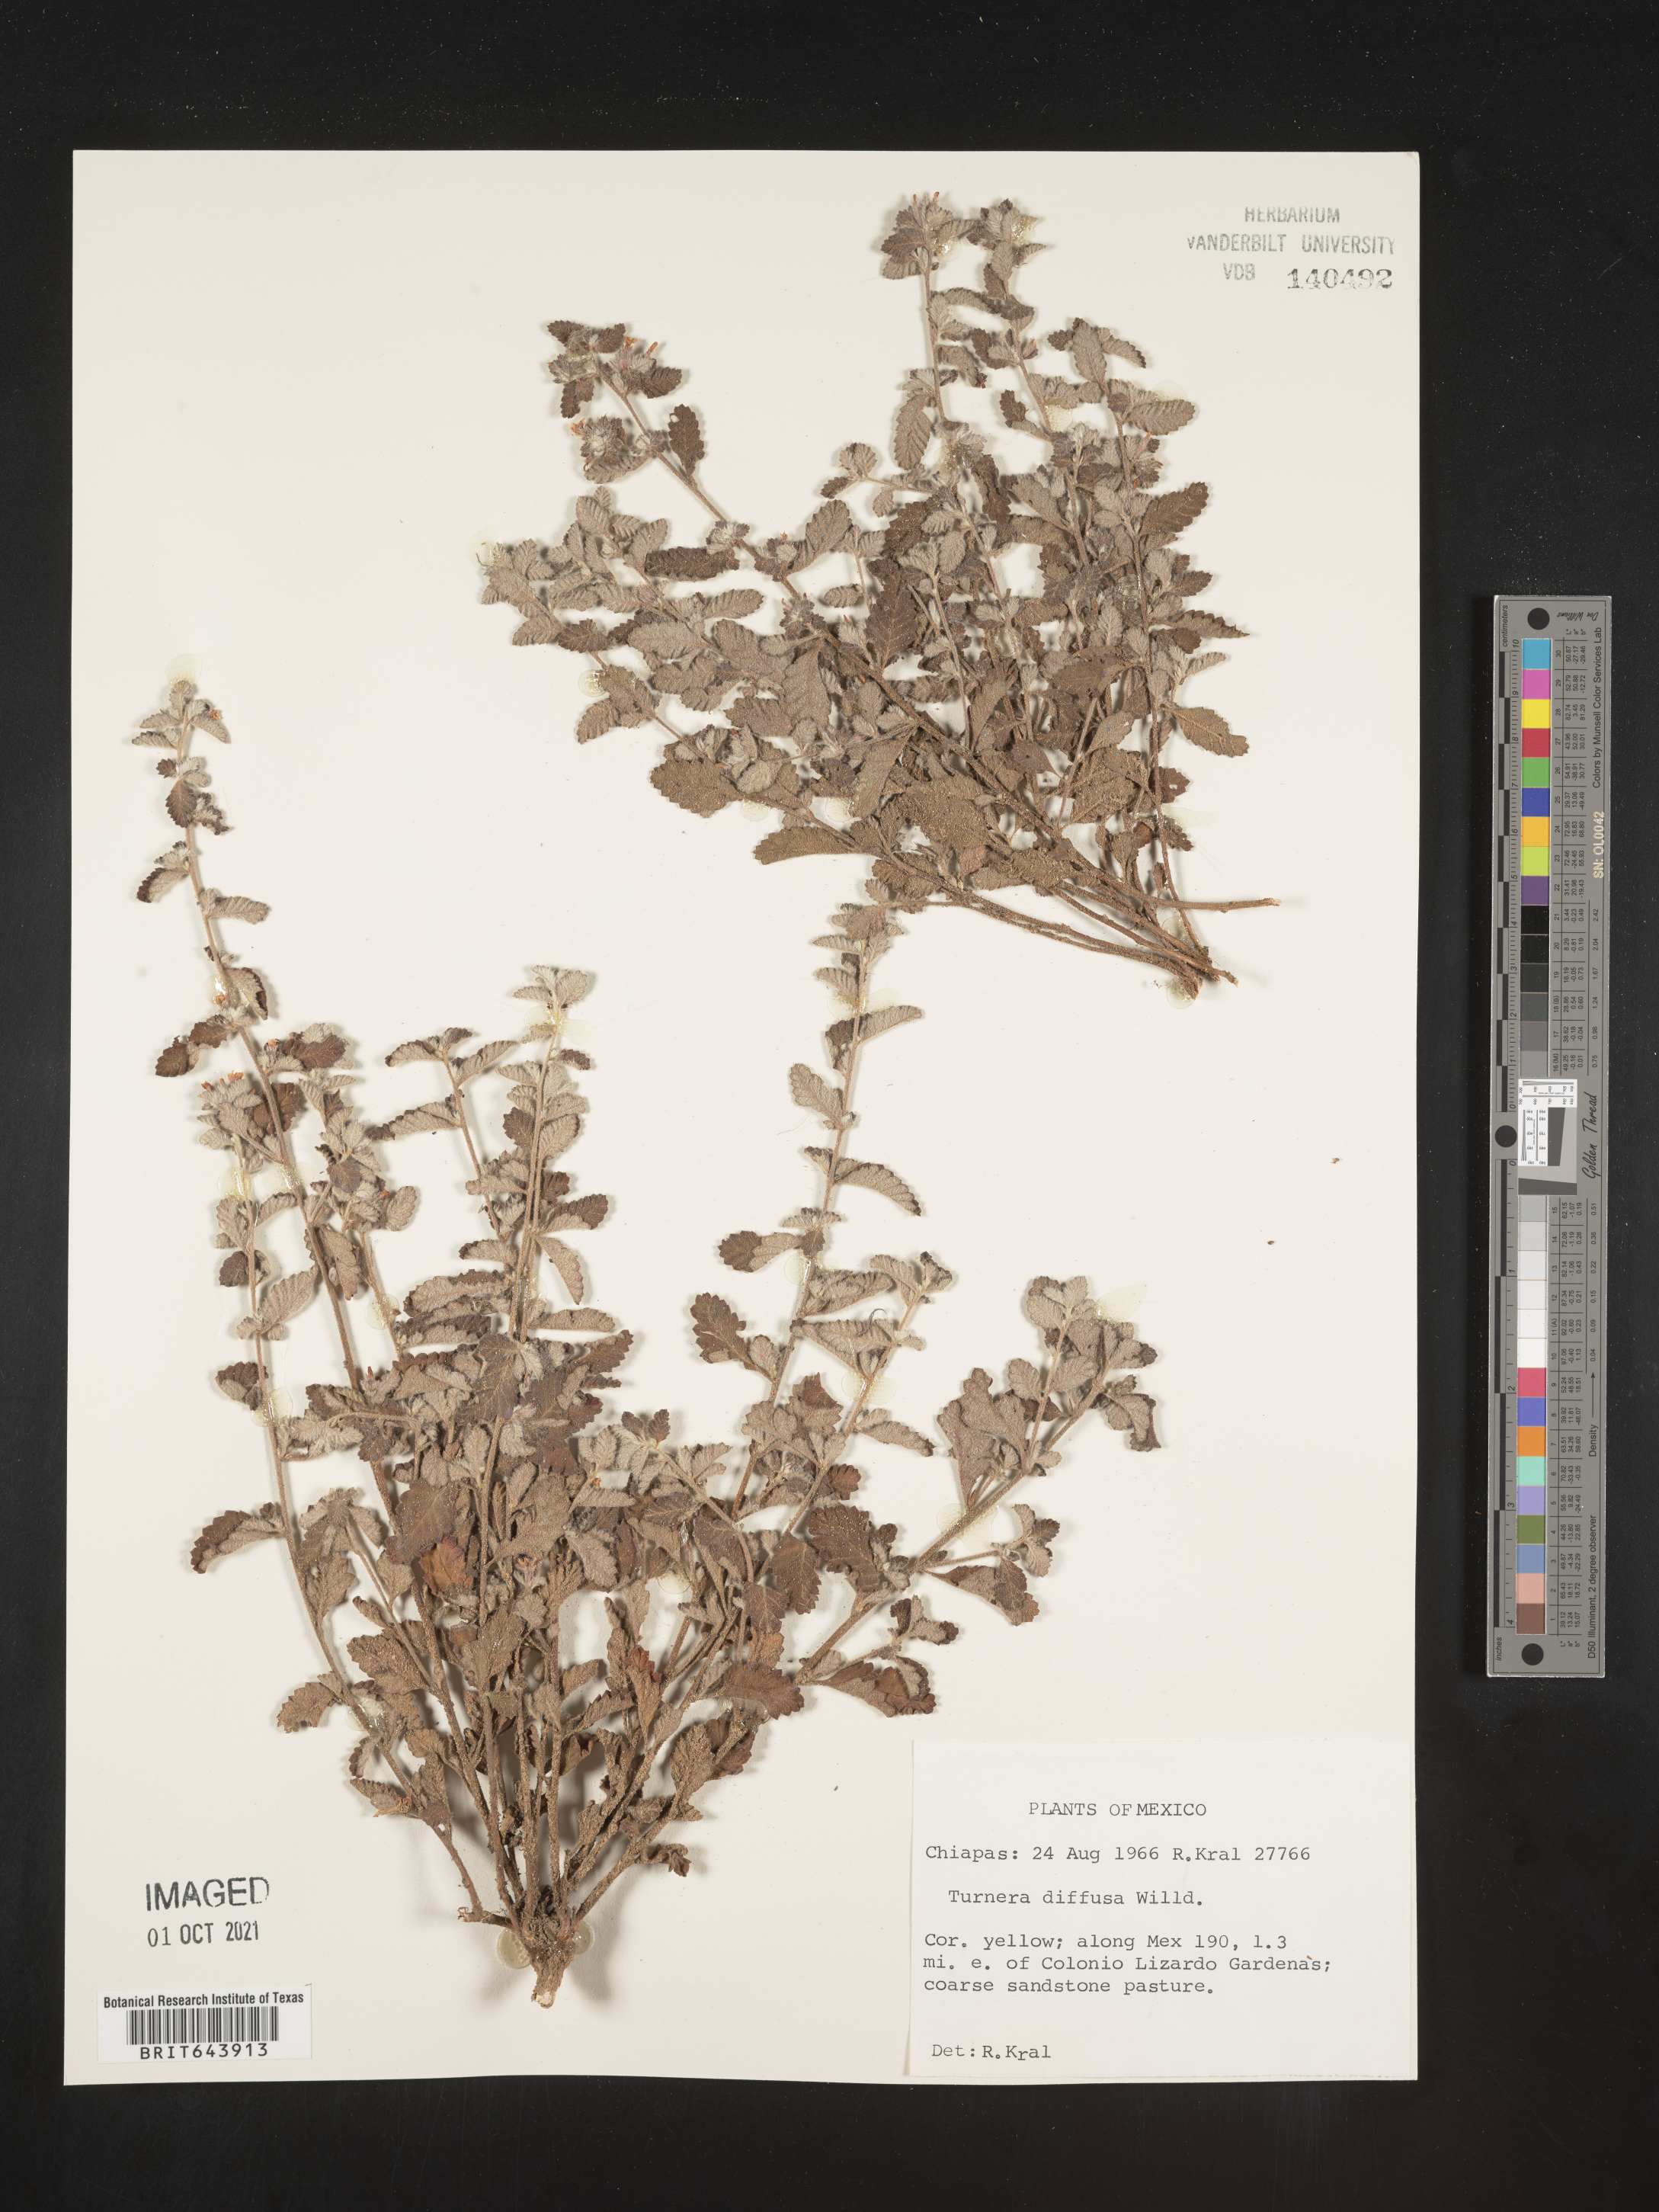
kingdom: Plantae
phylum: Tracheophyta
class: Magnoliopsida
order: Malpighiales
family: Turneraceae
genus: Turnera
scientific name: Turnera
